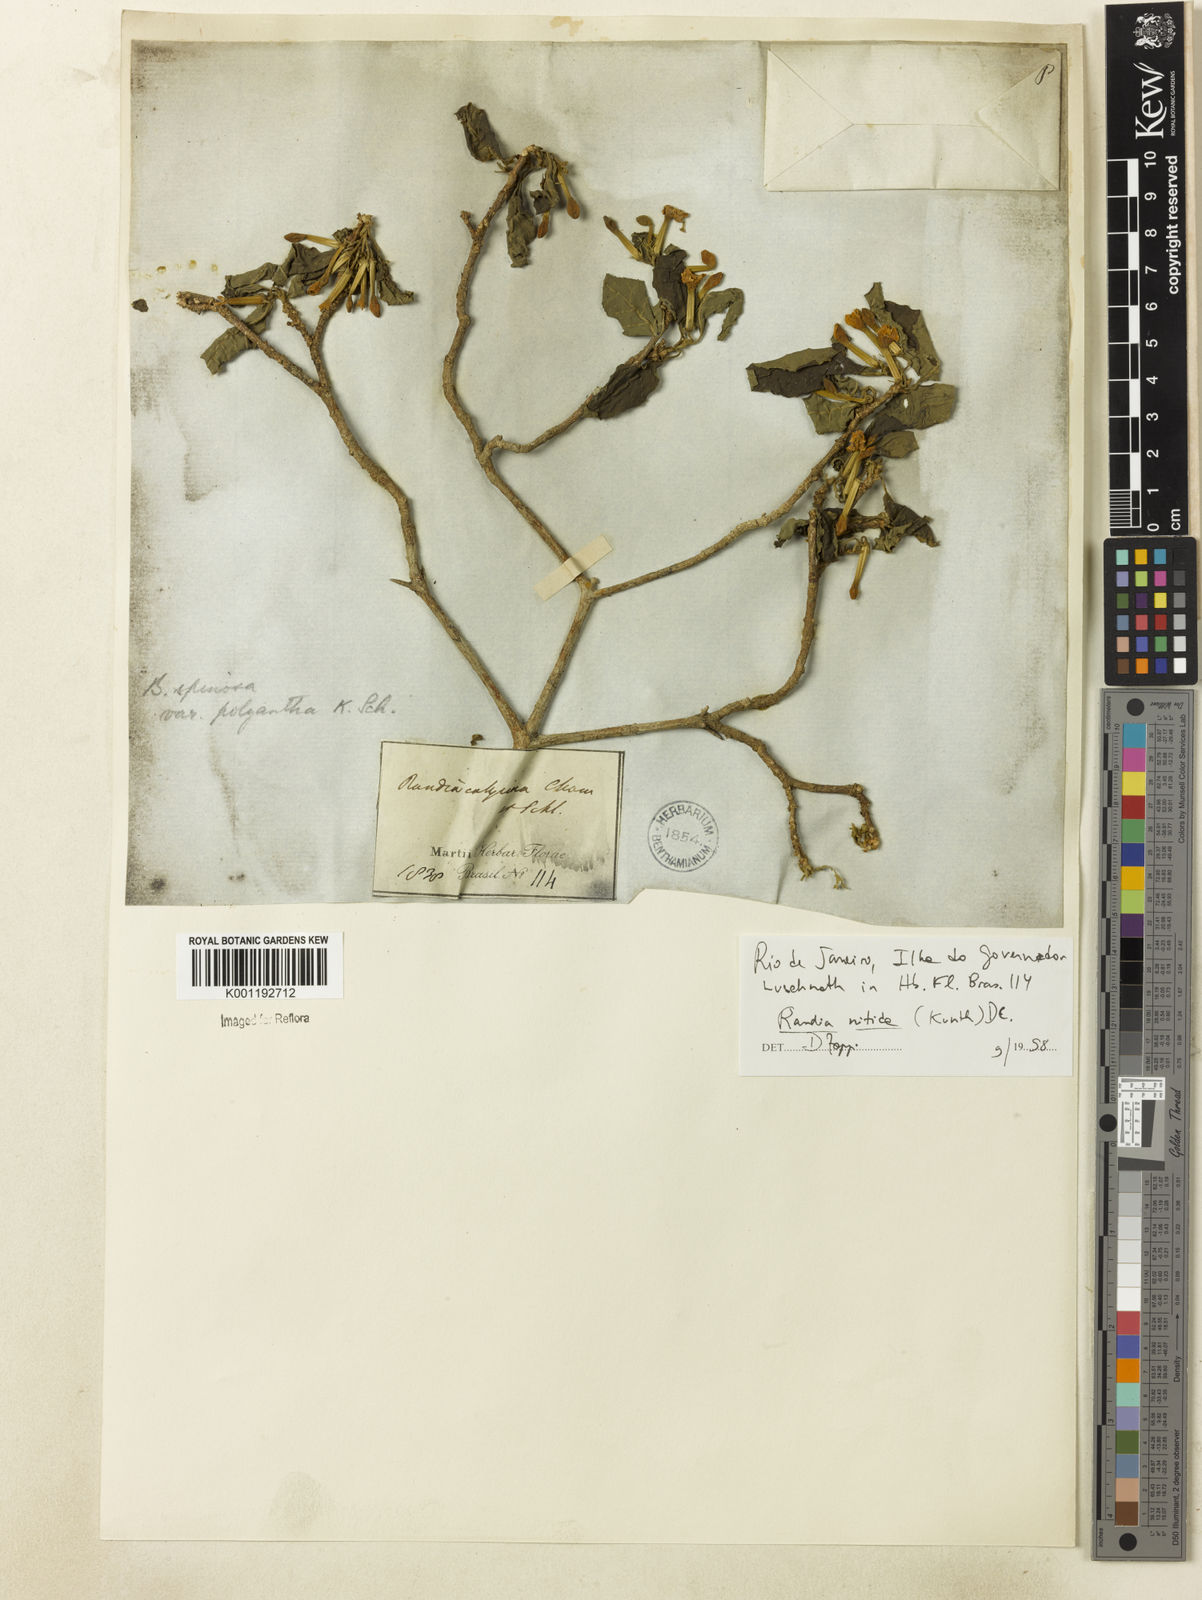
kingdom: Plantae
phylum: Tracheophyta
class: Magnoliopsida
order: Gentianales
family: Rubiaceae
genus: Randia
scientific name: Randia nitida
